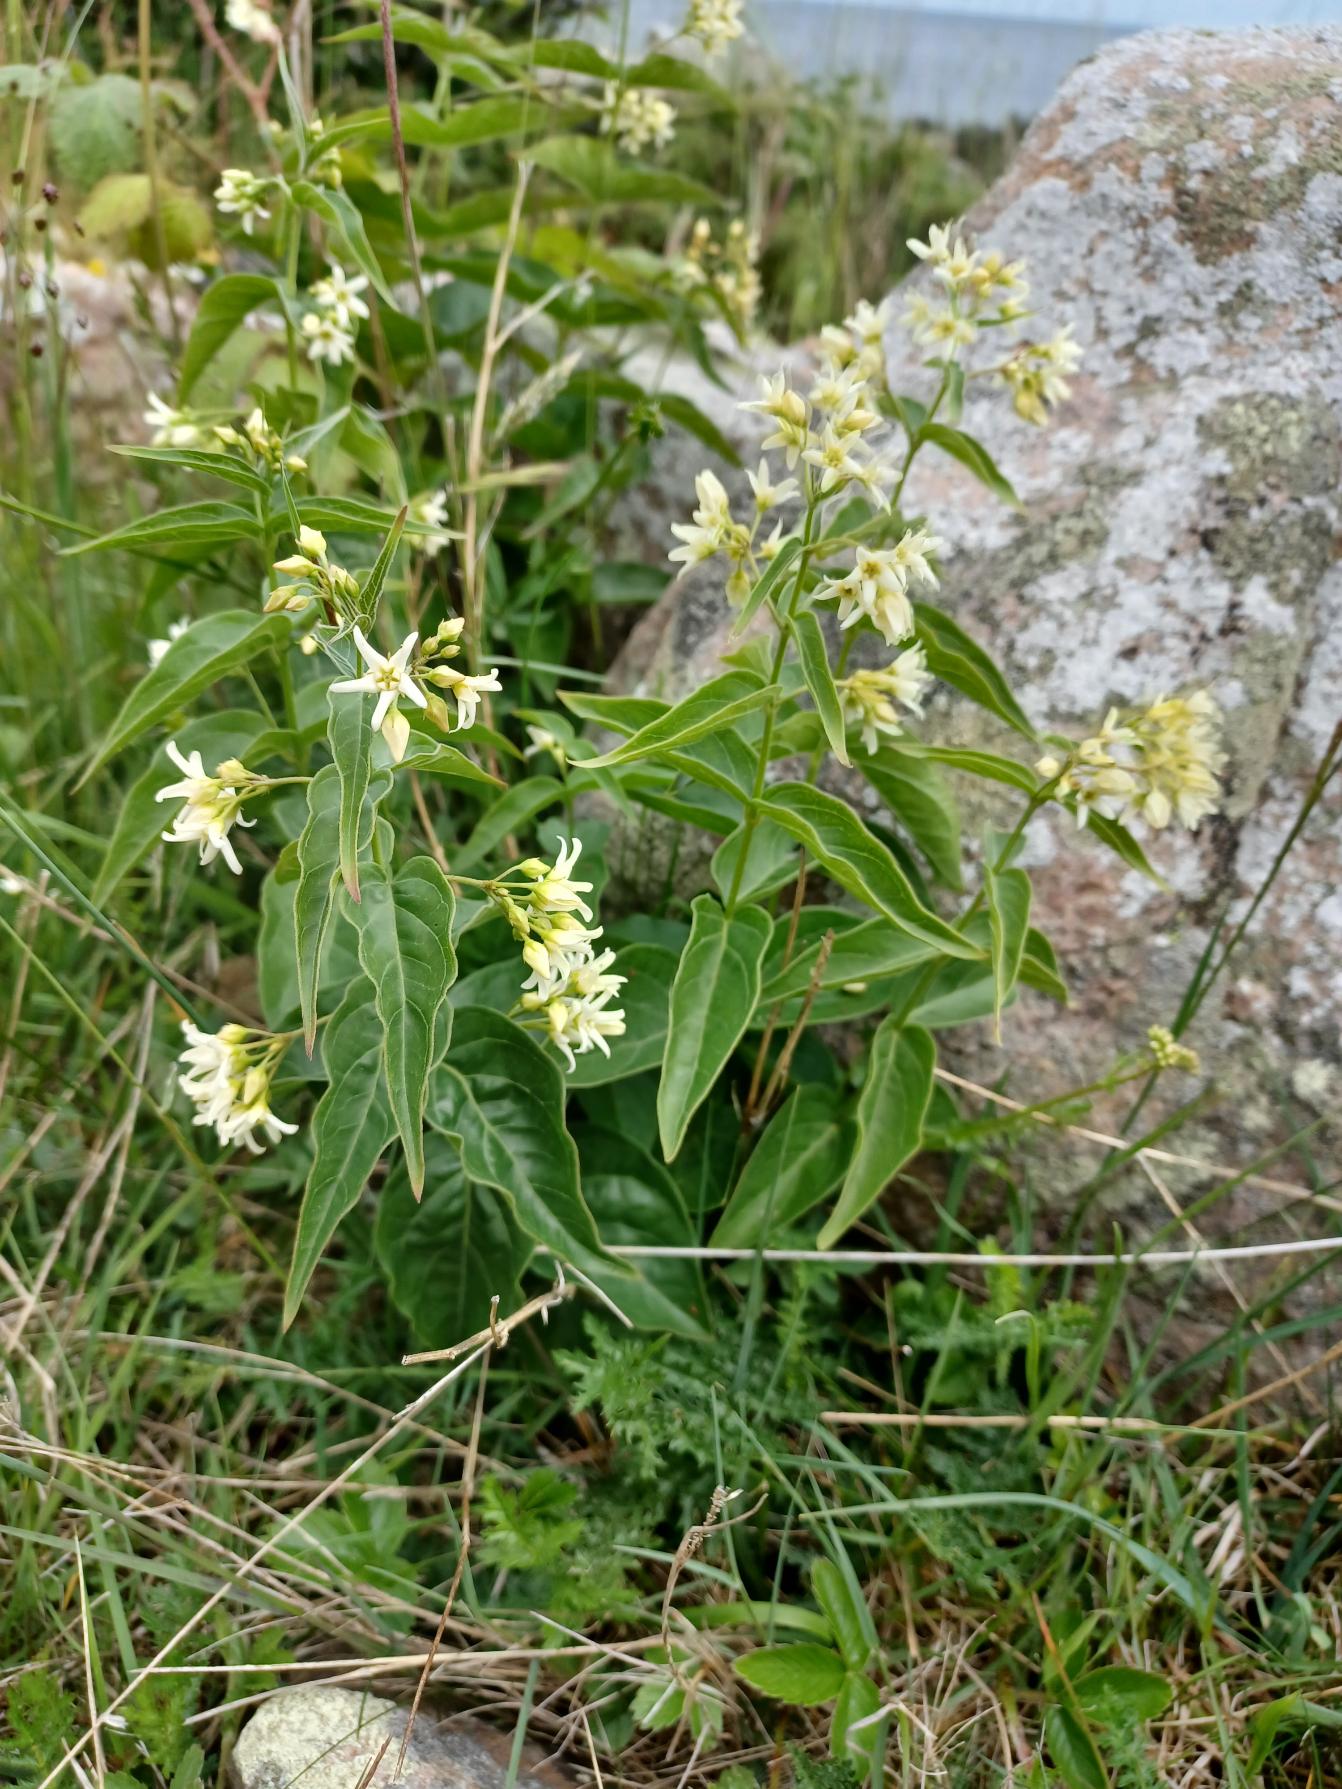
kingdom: Plantae
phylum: Tracheophyta
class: Magnoliopsida
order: Gentianales
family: Apocynaceae
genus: Vincetoxicum
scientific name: Vincetoxicum hirundinaria
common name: Svalerod
